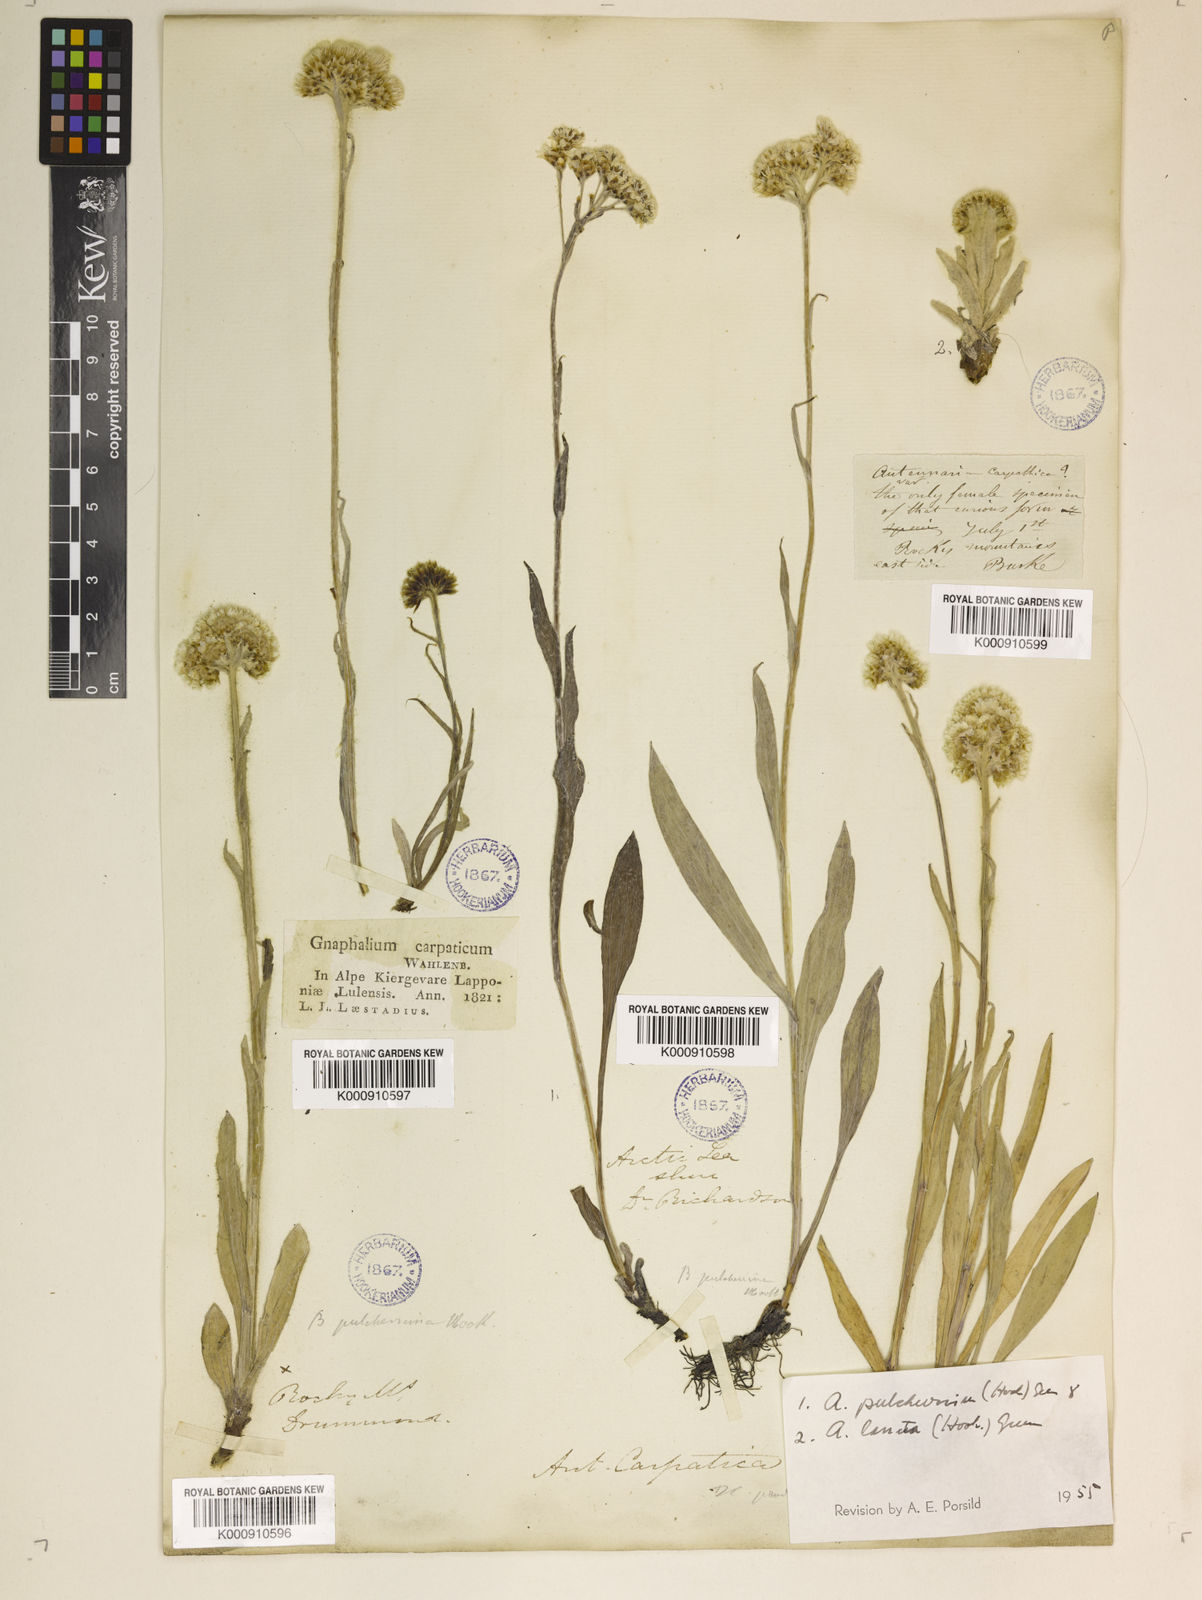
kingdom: Plantae
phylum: Tracheophyta
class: Magnoliopsida
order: Asterales
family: Asteraceae
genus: Antennaria
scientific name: Antennaria carpatica
